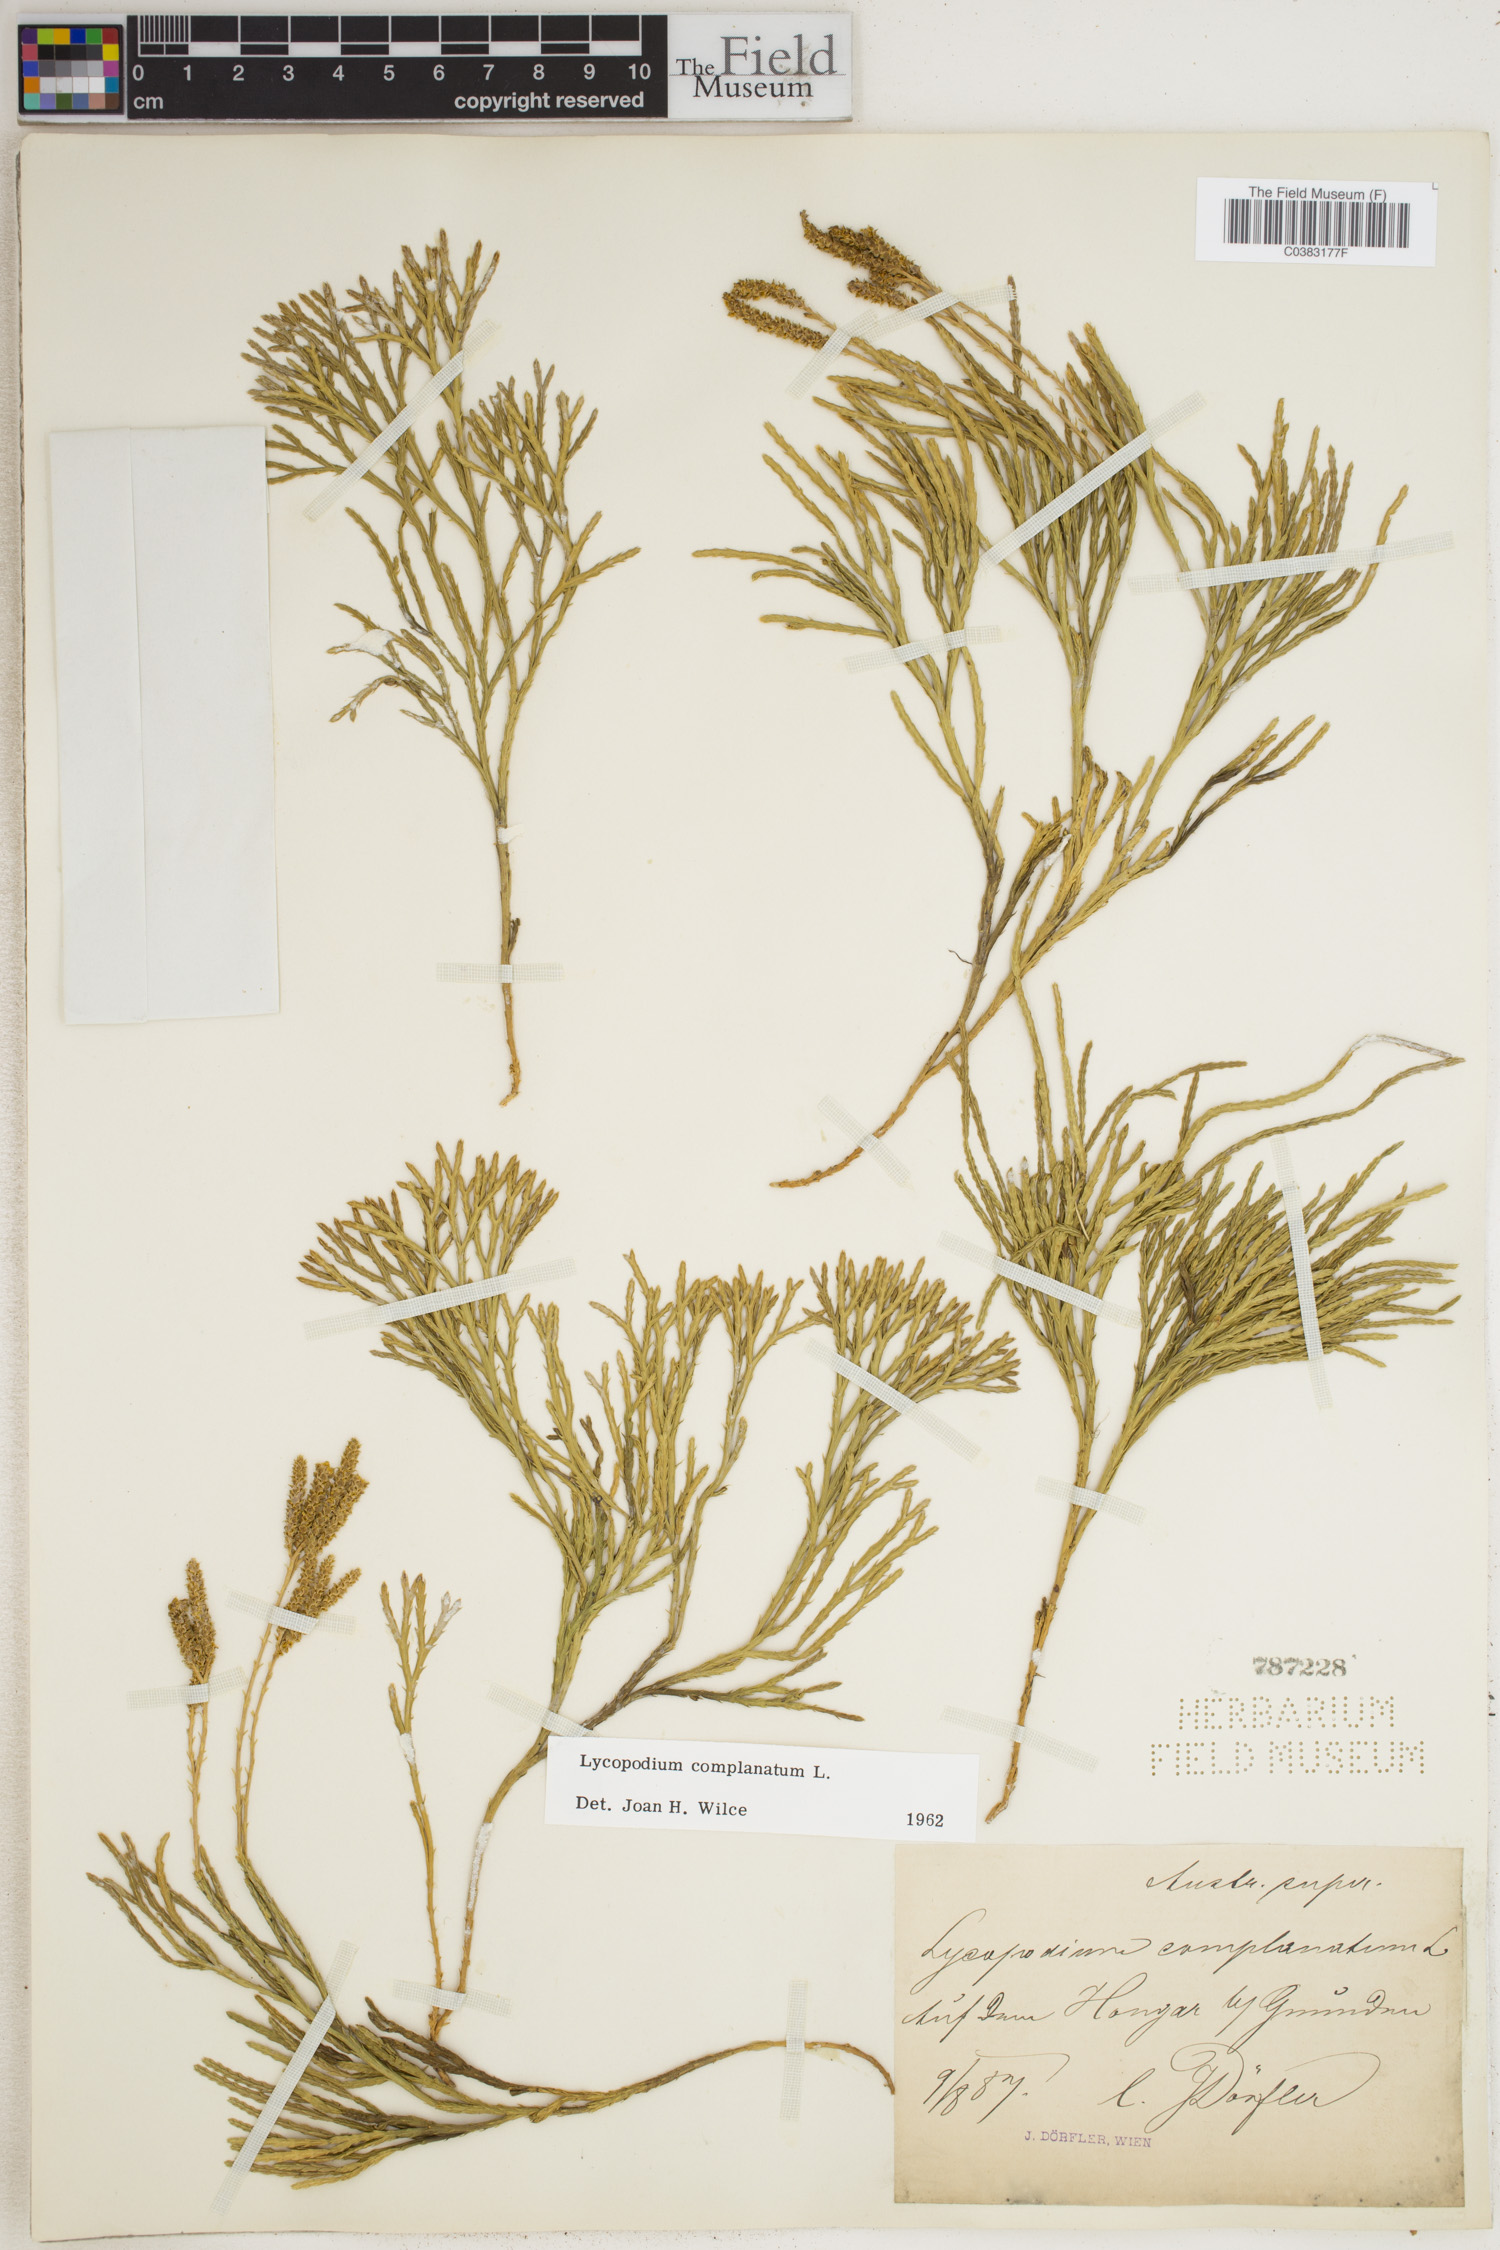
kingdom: Plantae
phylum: Tracheophyta
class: Lycopodiopsida
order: Lycopodiales
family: Lycopodiaceae
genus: Diphasiastrum
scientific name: Diphasiastrum complanatum
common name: Northern running-pine
